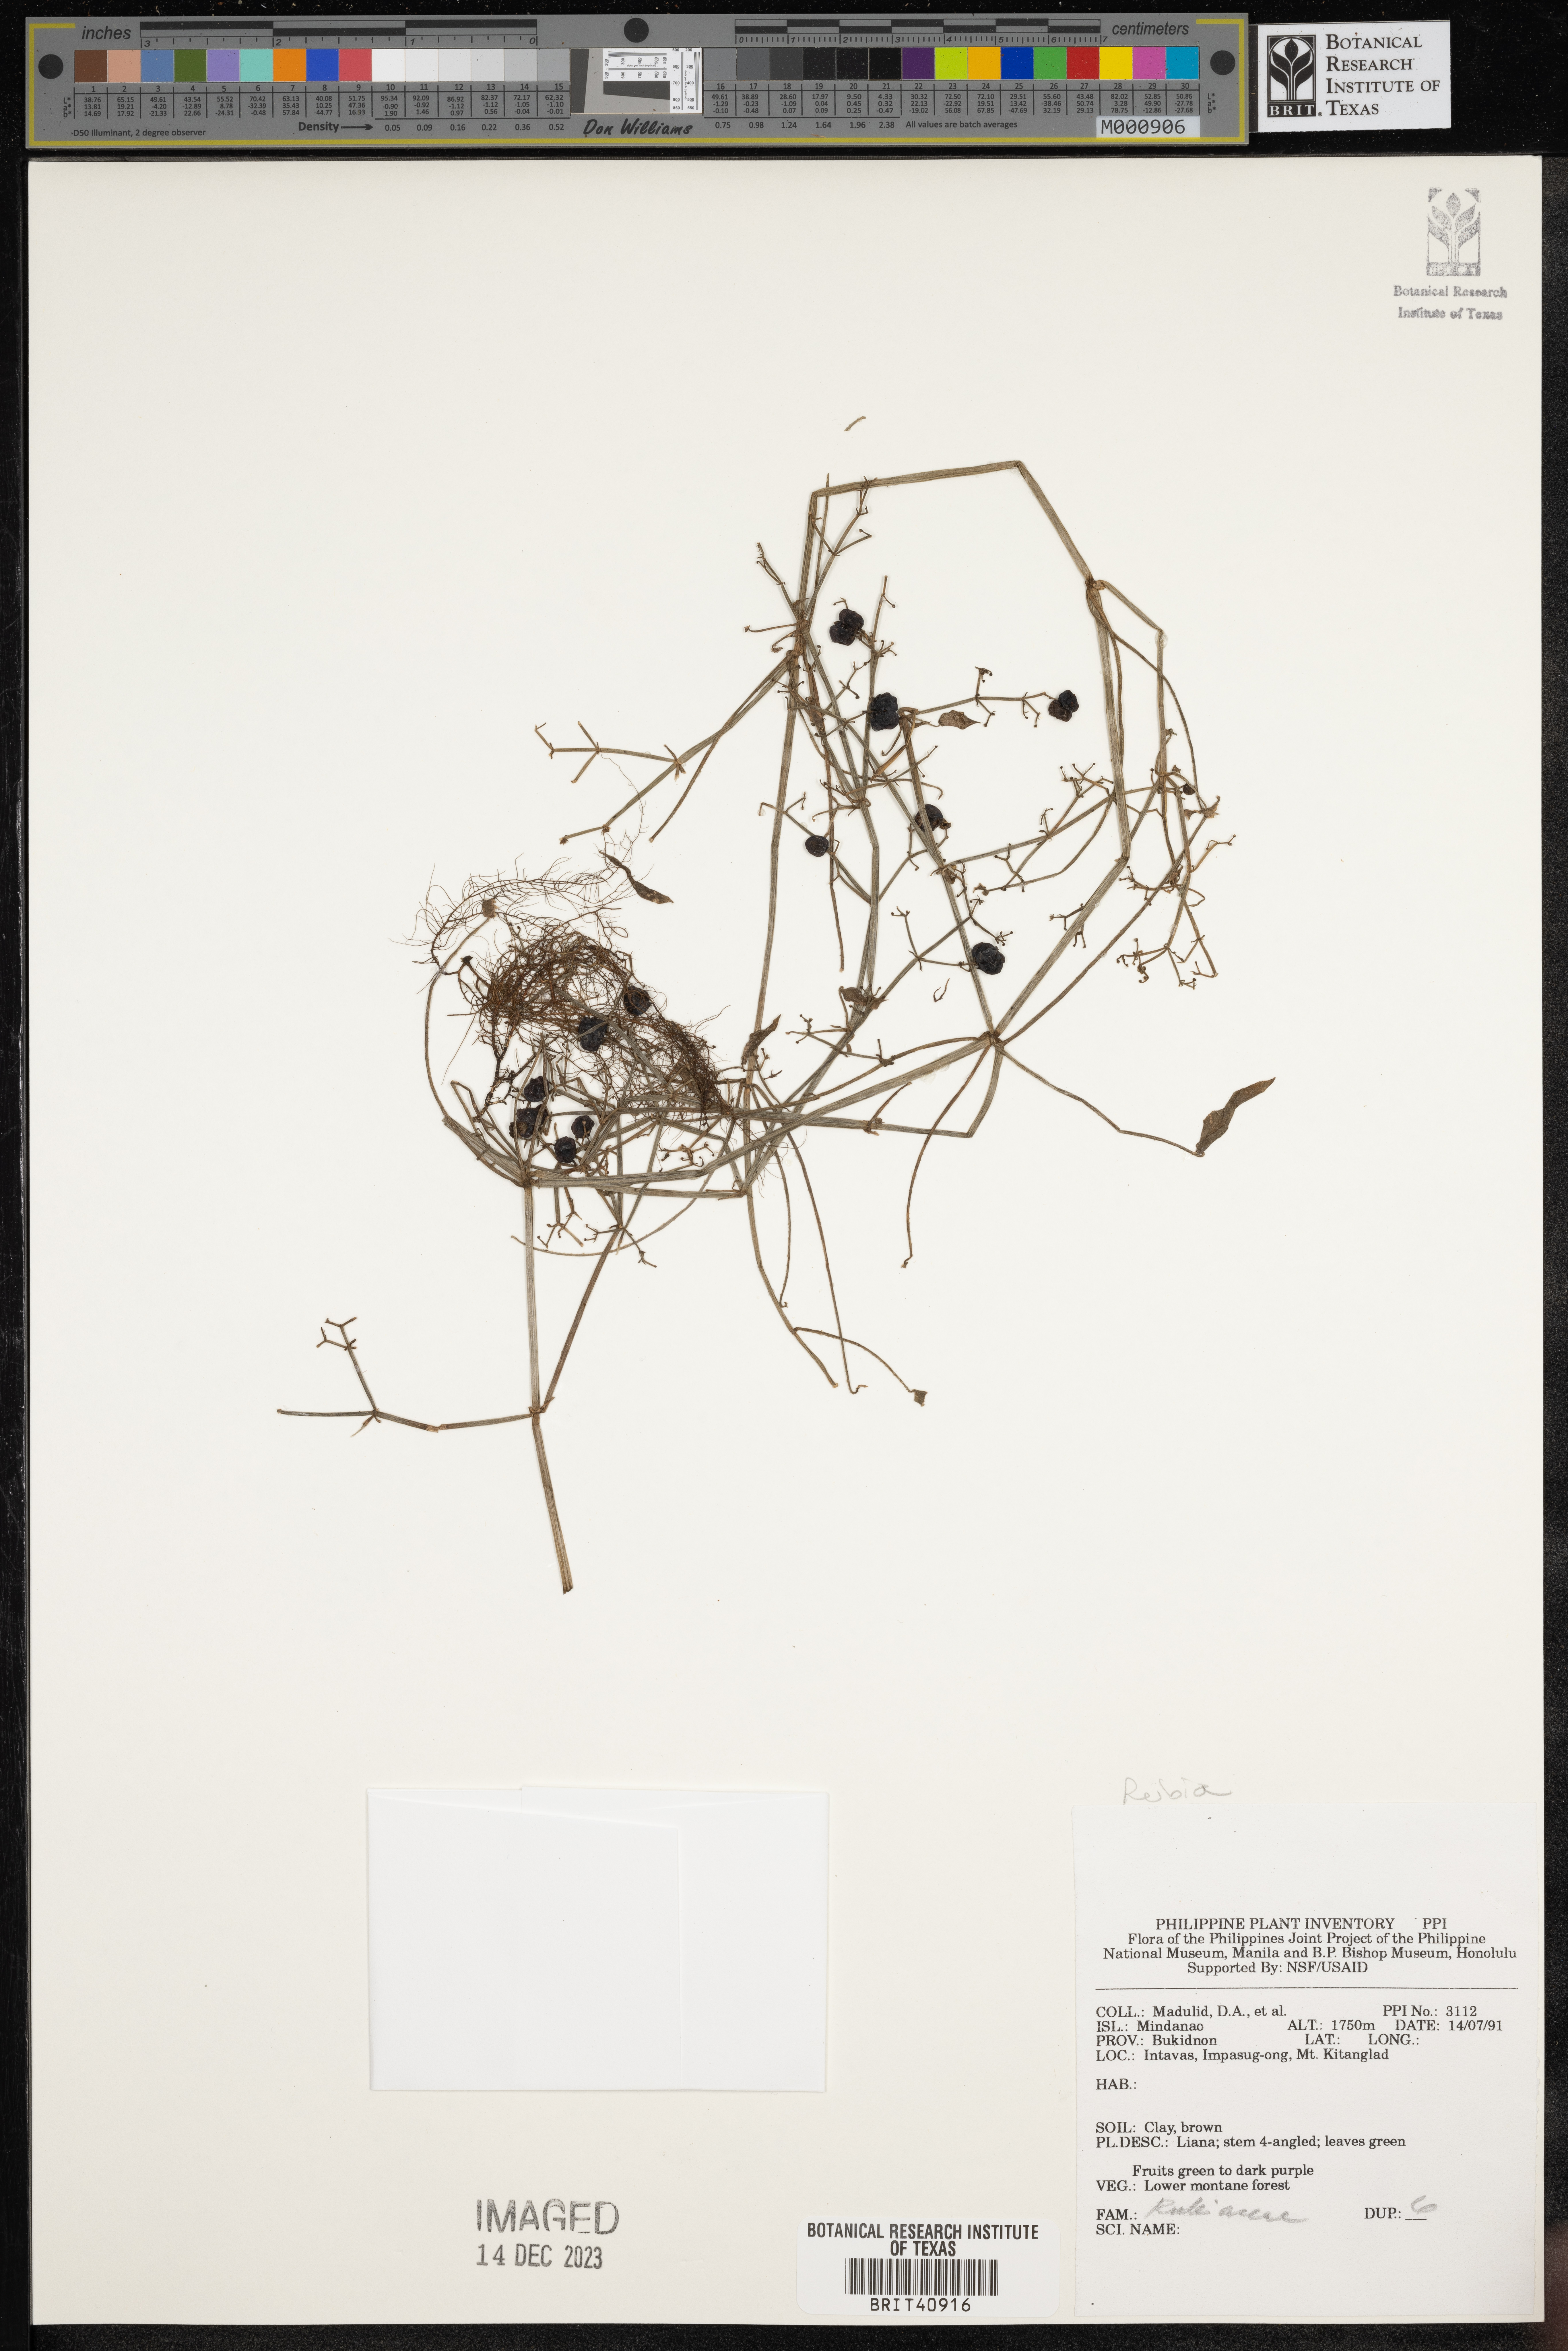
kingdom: Plantae
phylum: Tracheophyta
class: Magnoliopsida
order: Gentianales
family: Rubiaceae
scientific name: Rubiaceae
